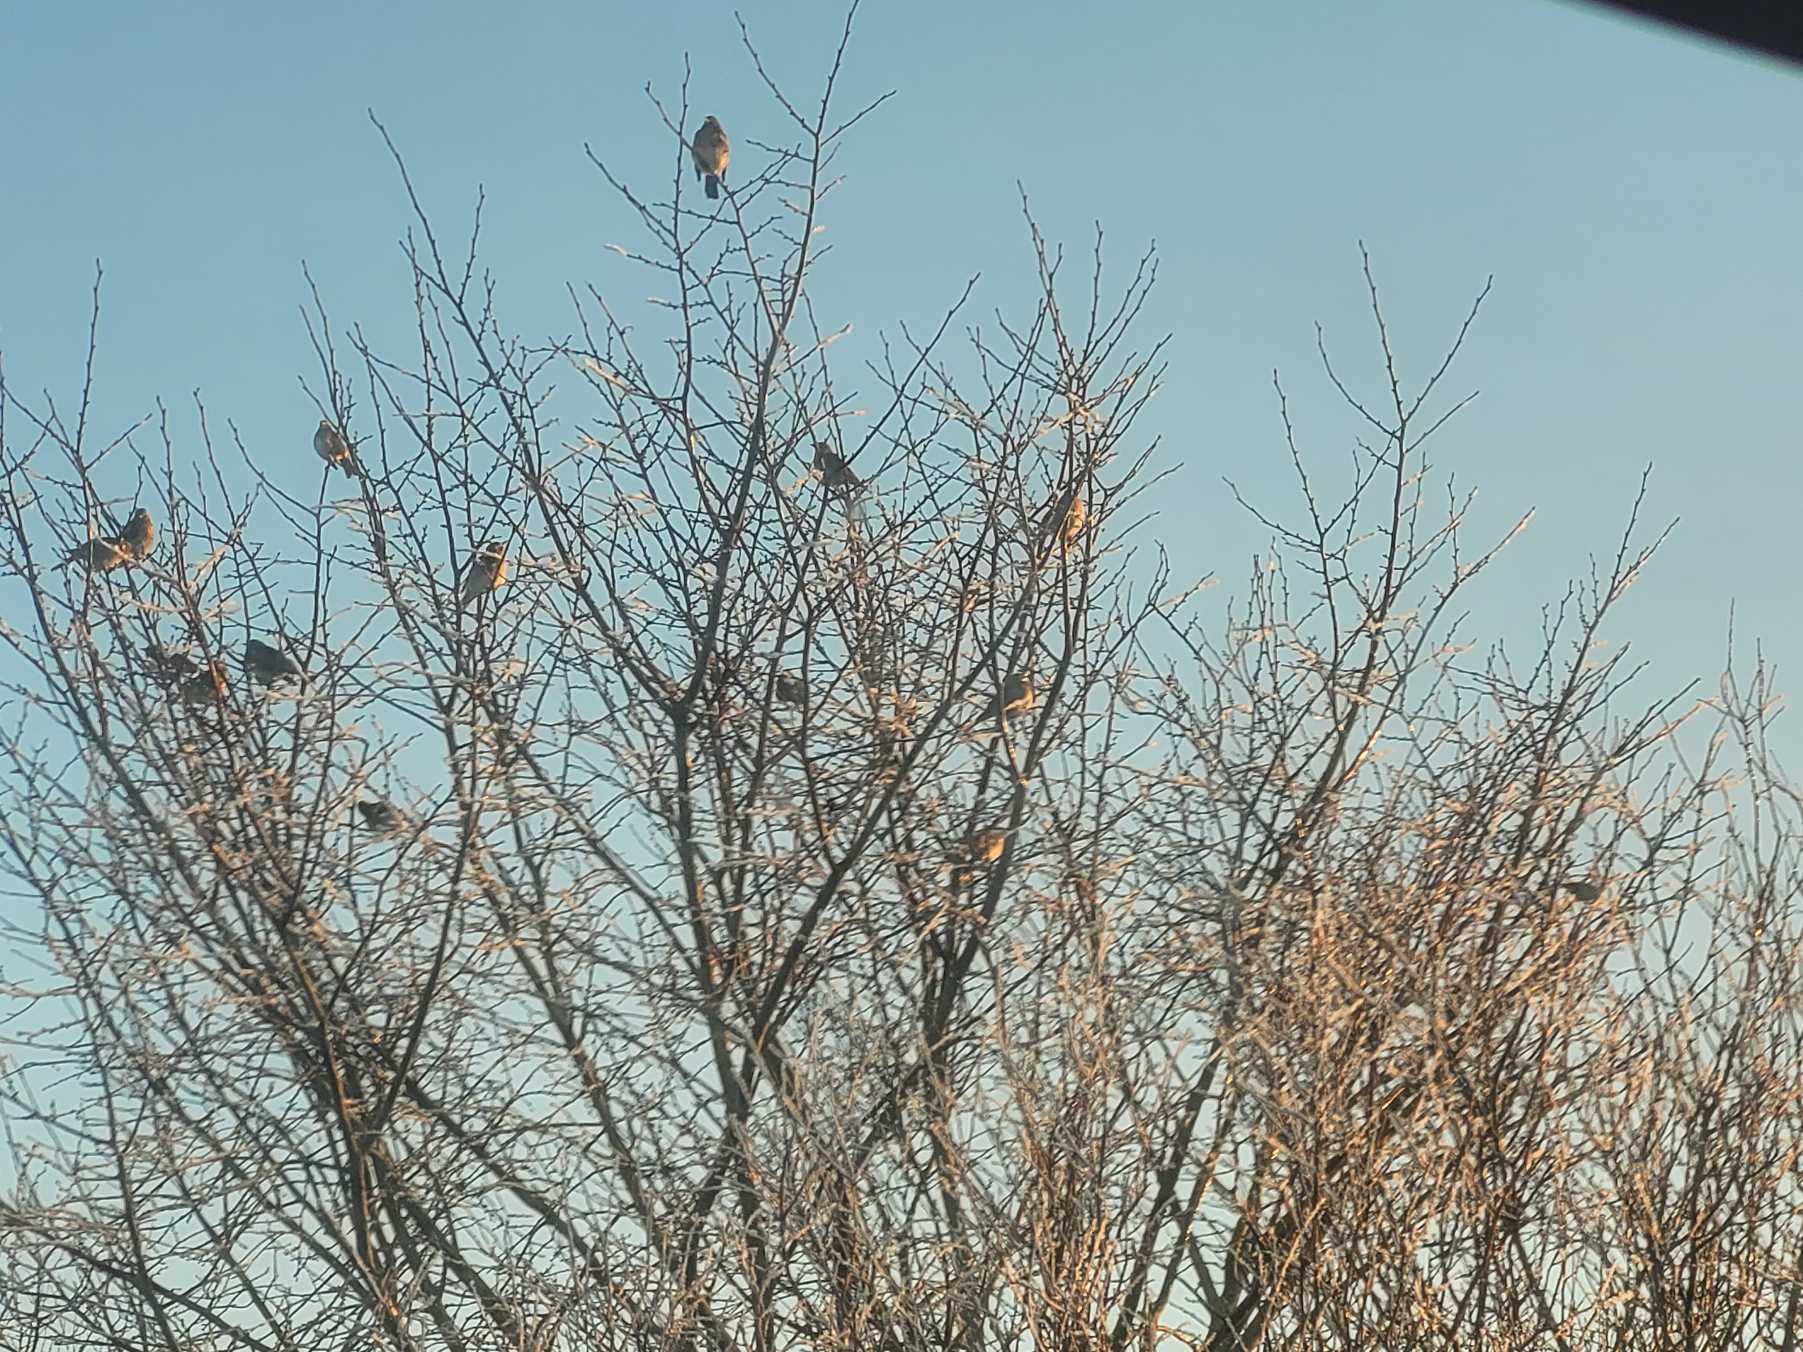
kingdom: Animalia
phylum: Chordata
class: Aves
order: Passeriformes
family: Turdidae
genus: Turdus
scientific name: Turdus pilaris
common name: Sjagger
